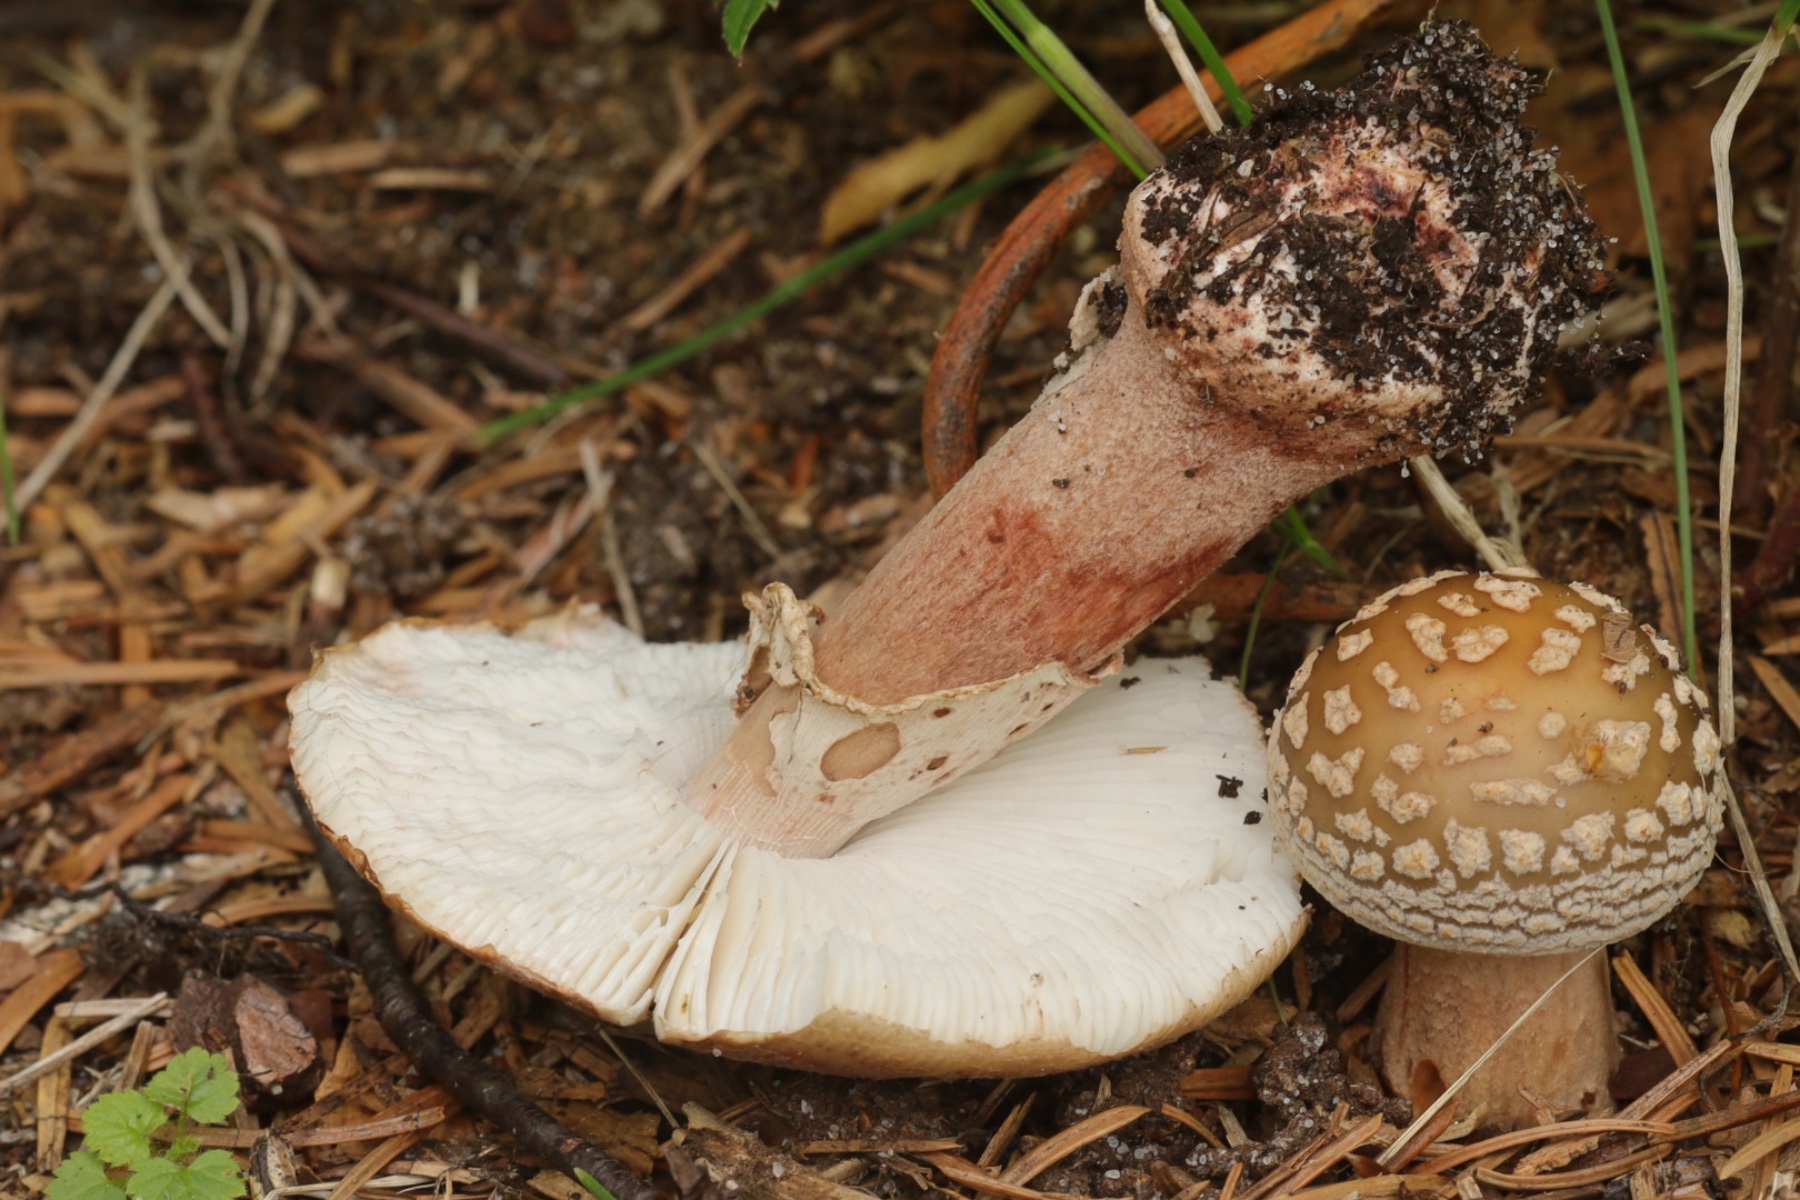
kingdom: Fungi
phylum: Basidiomycota
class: Agaricomycetes
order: Agaricales
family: Amanitaceae
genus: Amanita
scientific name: Amanita rubescens
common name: rødmende fluesvamp
